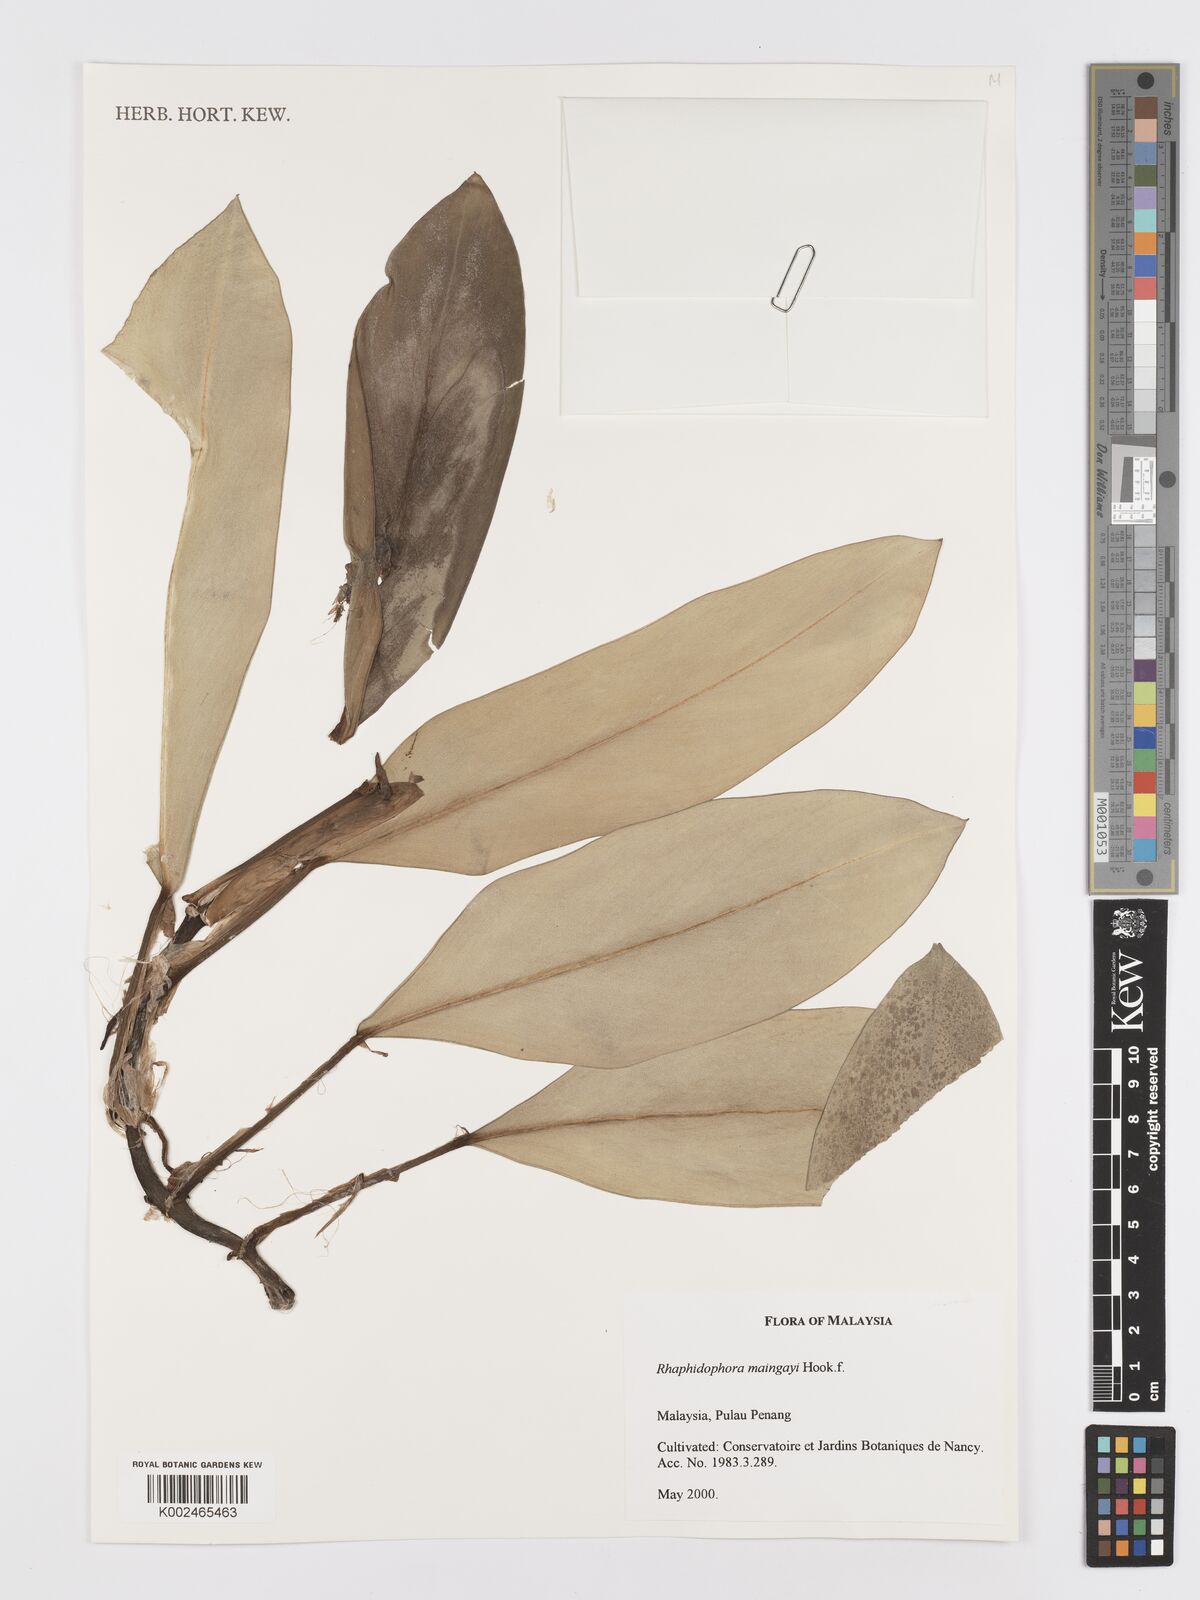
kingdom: Plantae
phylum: Tracheophyta
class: Liliopsida
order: Alismatales
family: Araceae
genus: Rhaphidophora
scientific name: Rhaphidophora maingayi
